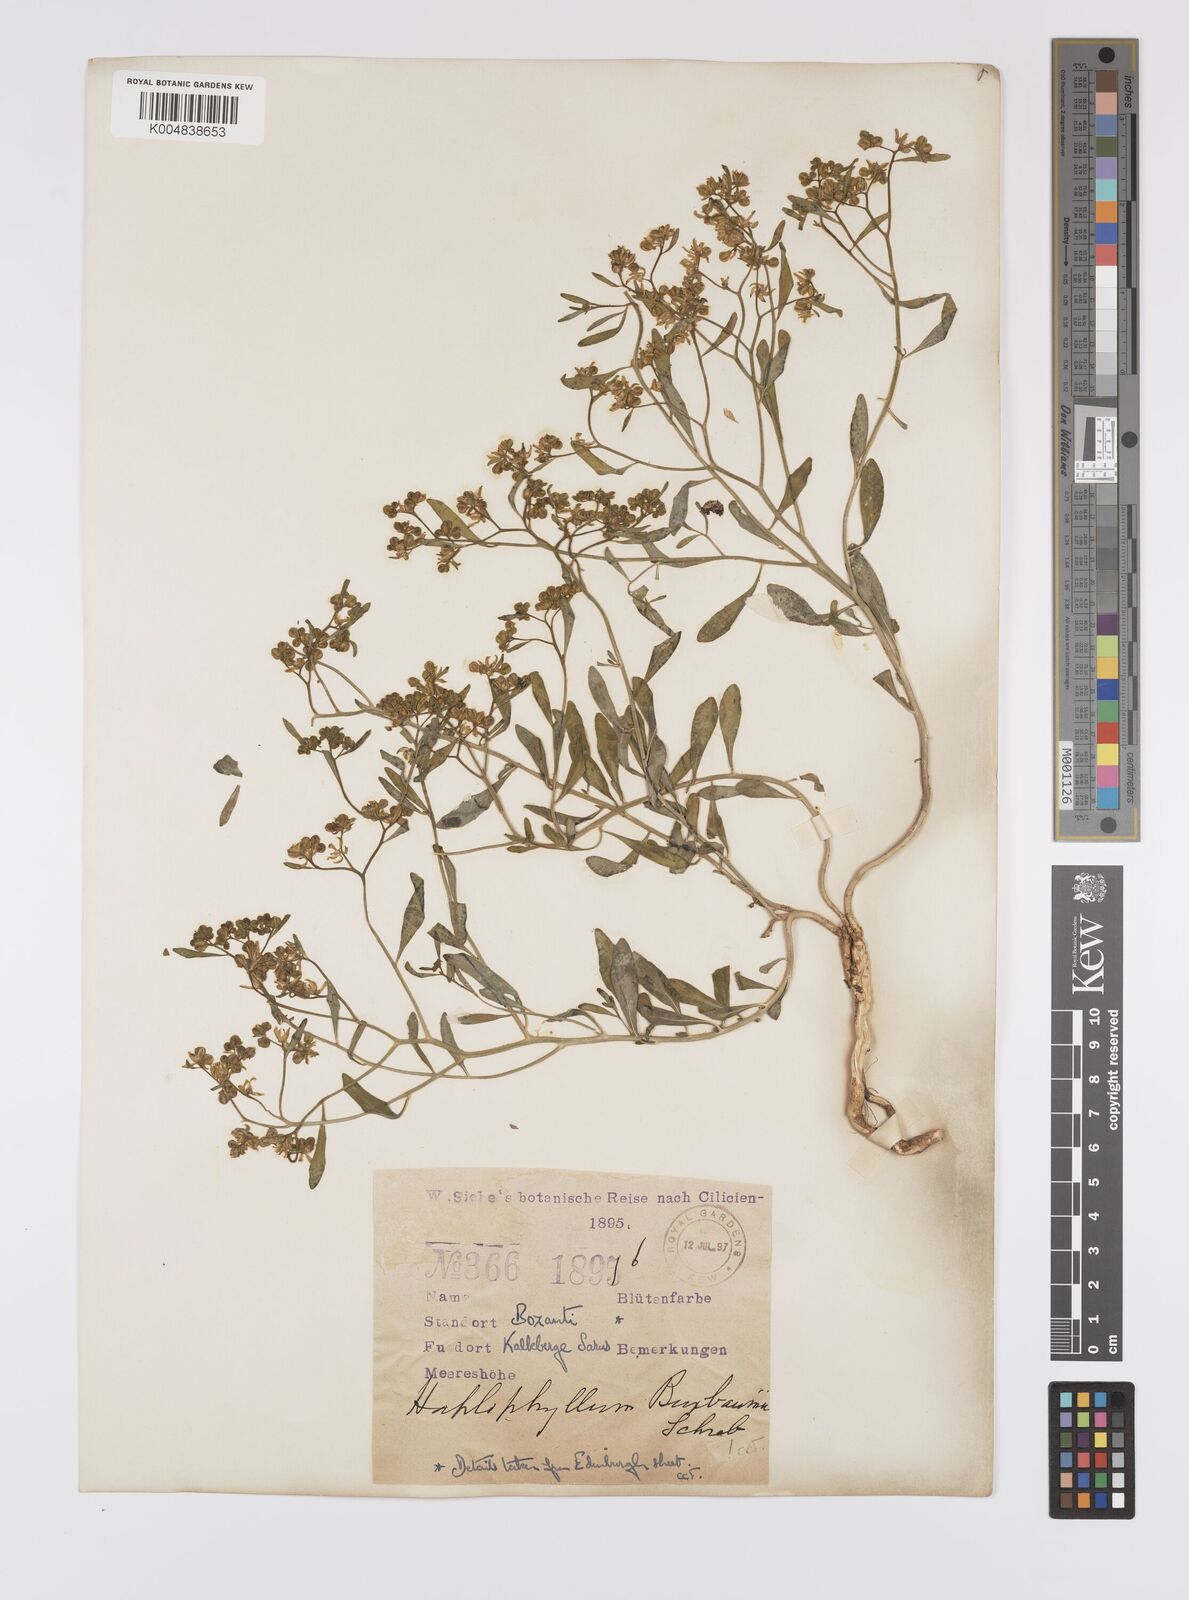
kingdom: Plantae
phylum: Tracheophyta
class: Magnoliopsida
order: Sapindales
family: Rutaceae
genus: Haplophyllum
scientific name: Haplophyllum
